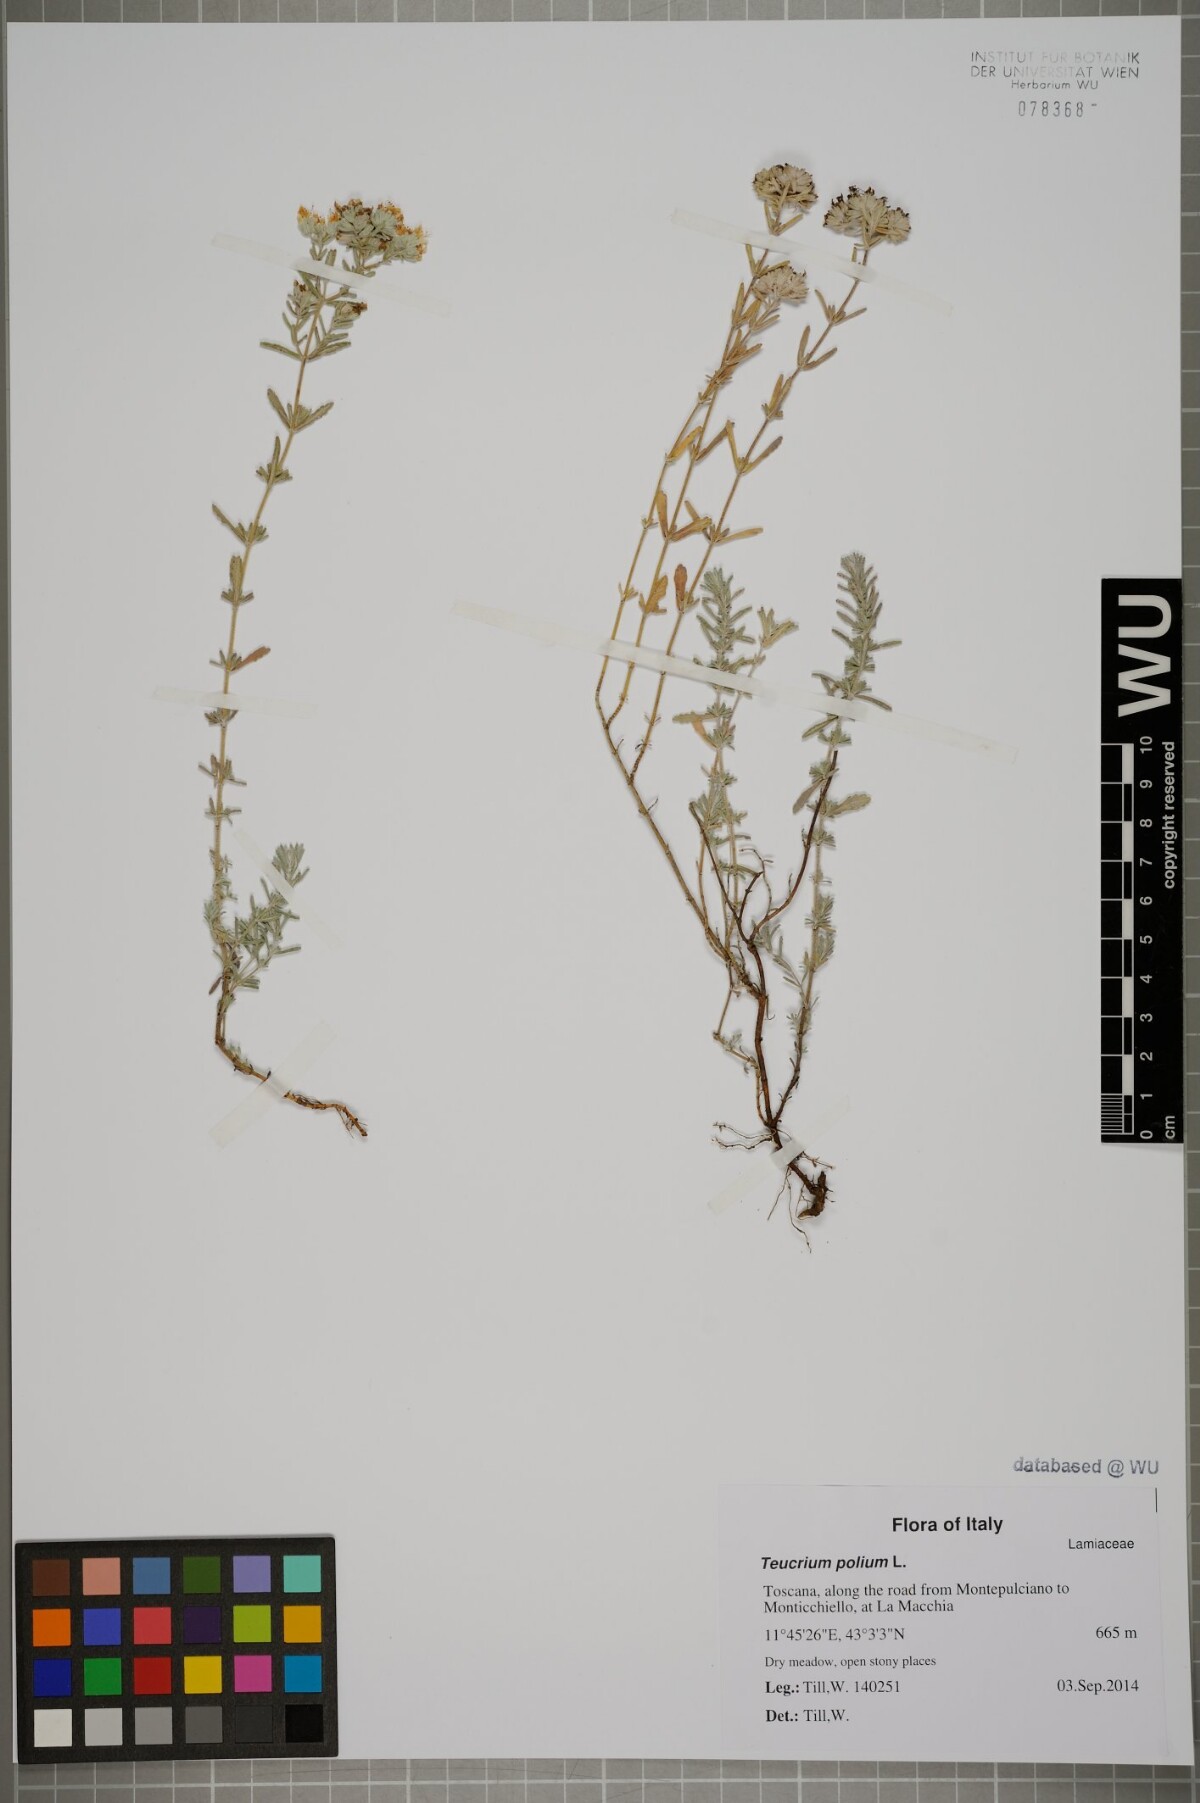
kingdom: Plantae
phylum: Tracheophyta
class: Magnoliopsida
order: Lamiales
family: Lamiaceae
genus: Teucrium
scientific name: Teucrium polium
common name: Poley
